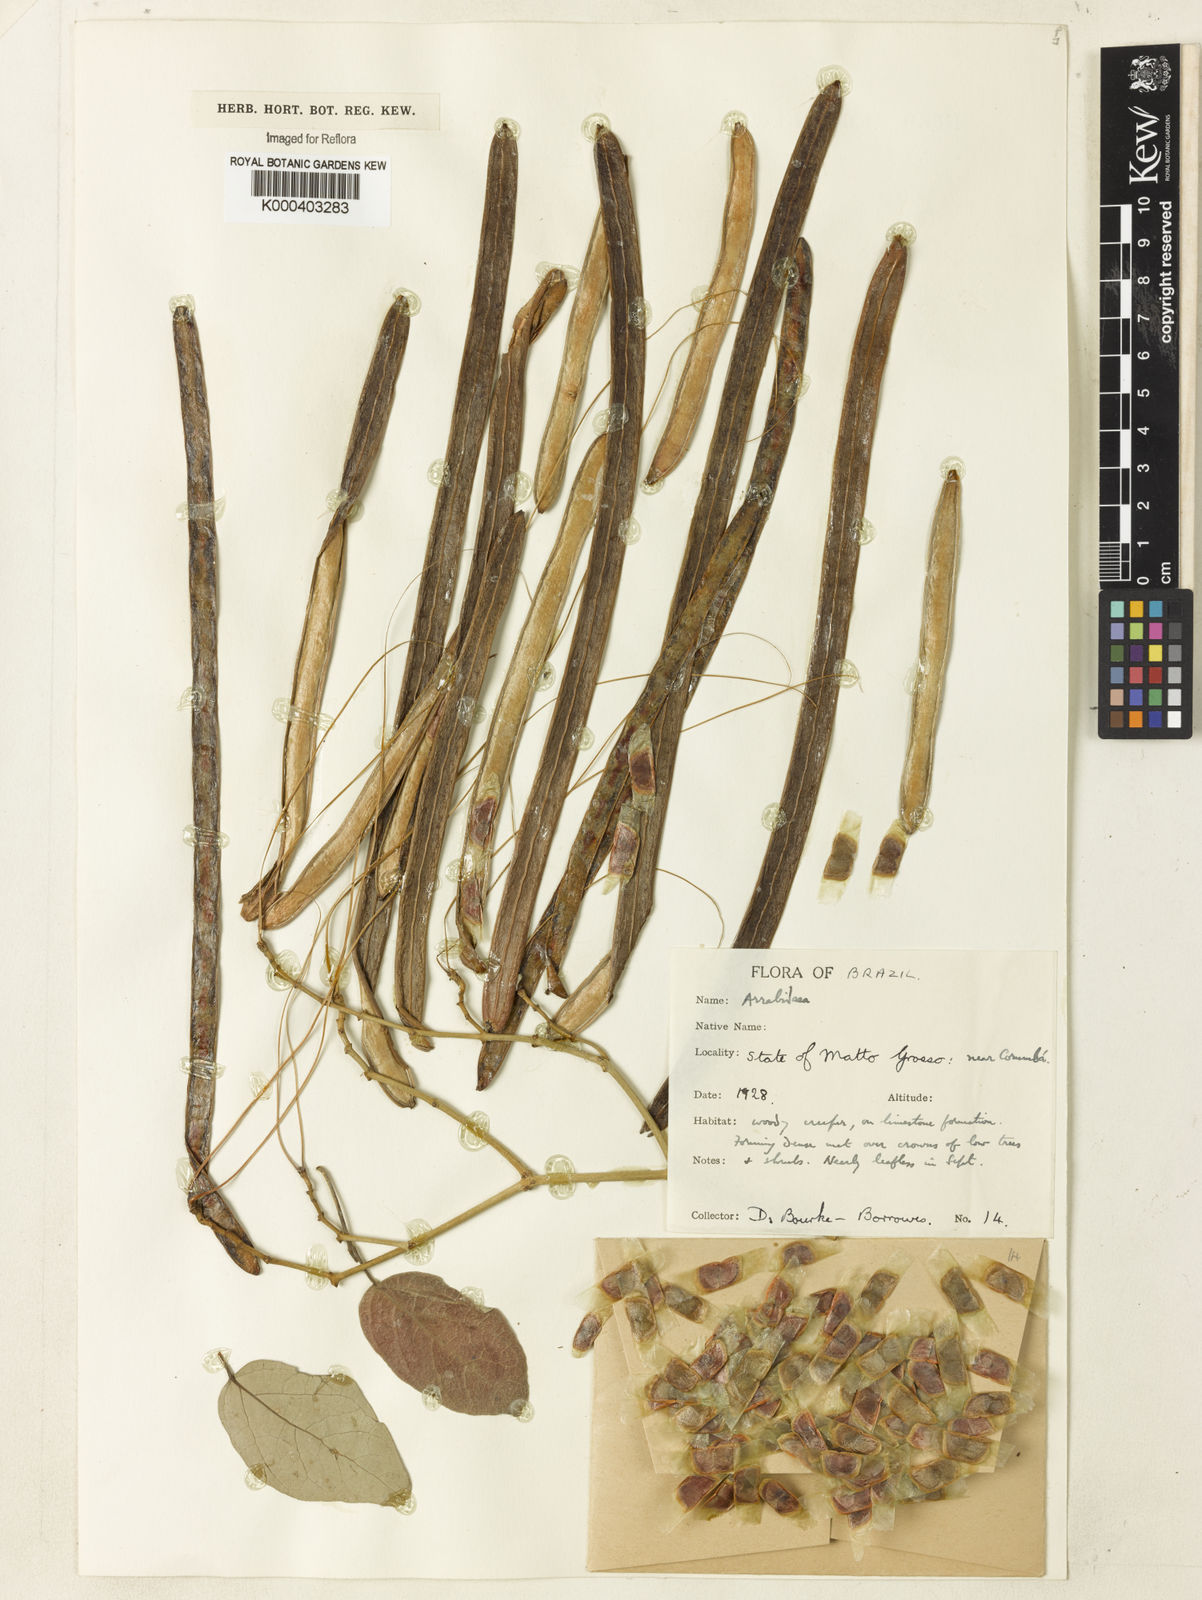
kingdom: Plantae
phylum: Tracheophyta
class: Magnoliopsida
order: Rosales
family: Rhamnaceae
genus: Arrabidaea
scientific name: Arrabidaea
